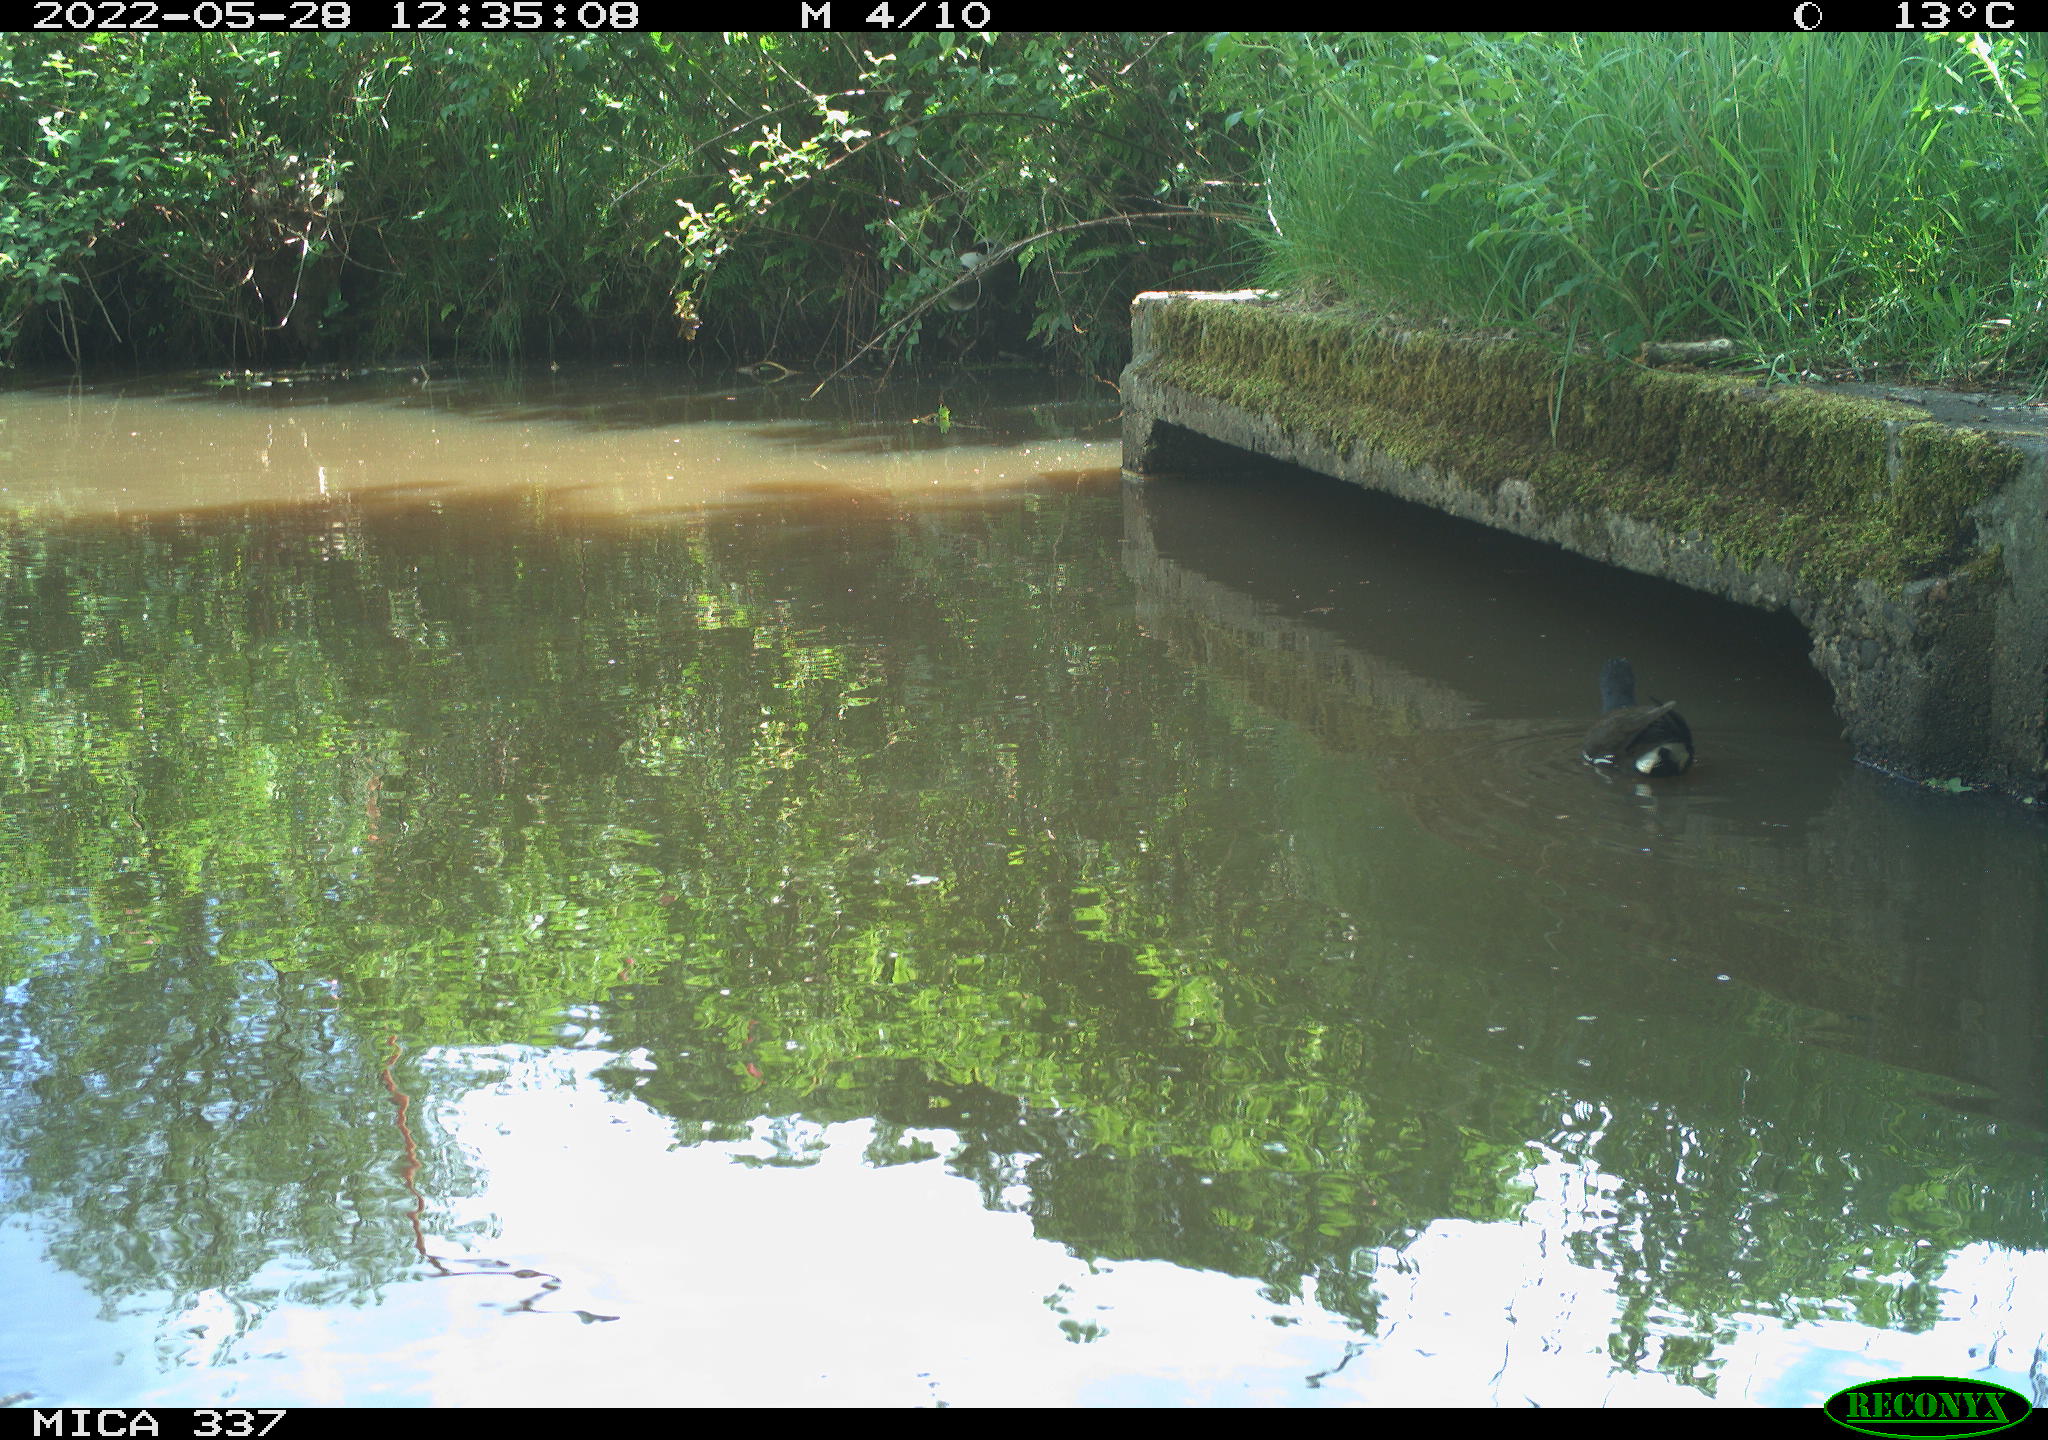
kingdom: Animalia
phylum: Chordata
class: Aves
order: Gruiformes
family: Rallidae
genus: Gallinula
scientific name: Gallinula chloropus
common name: Common moorhen
